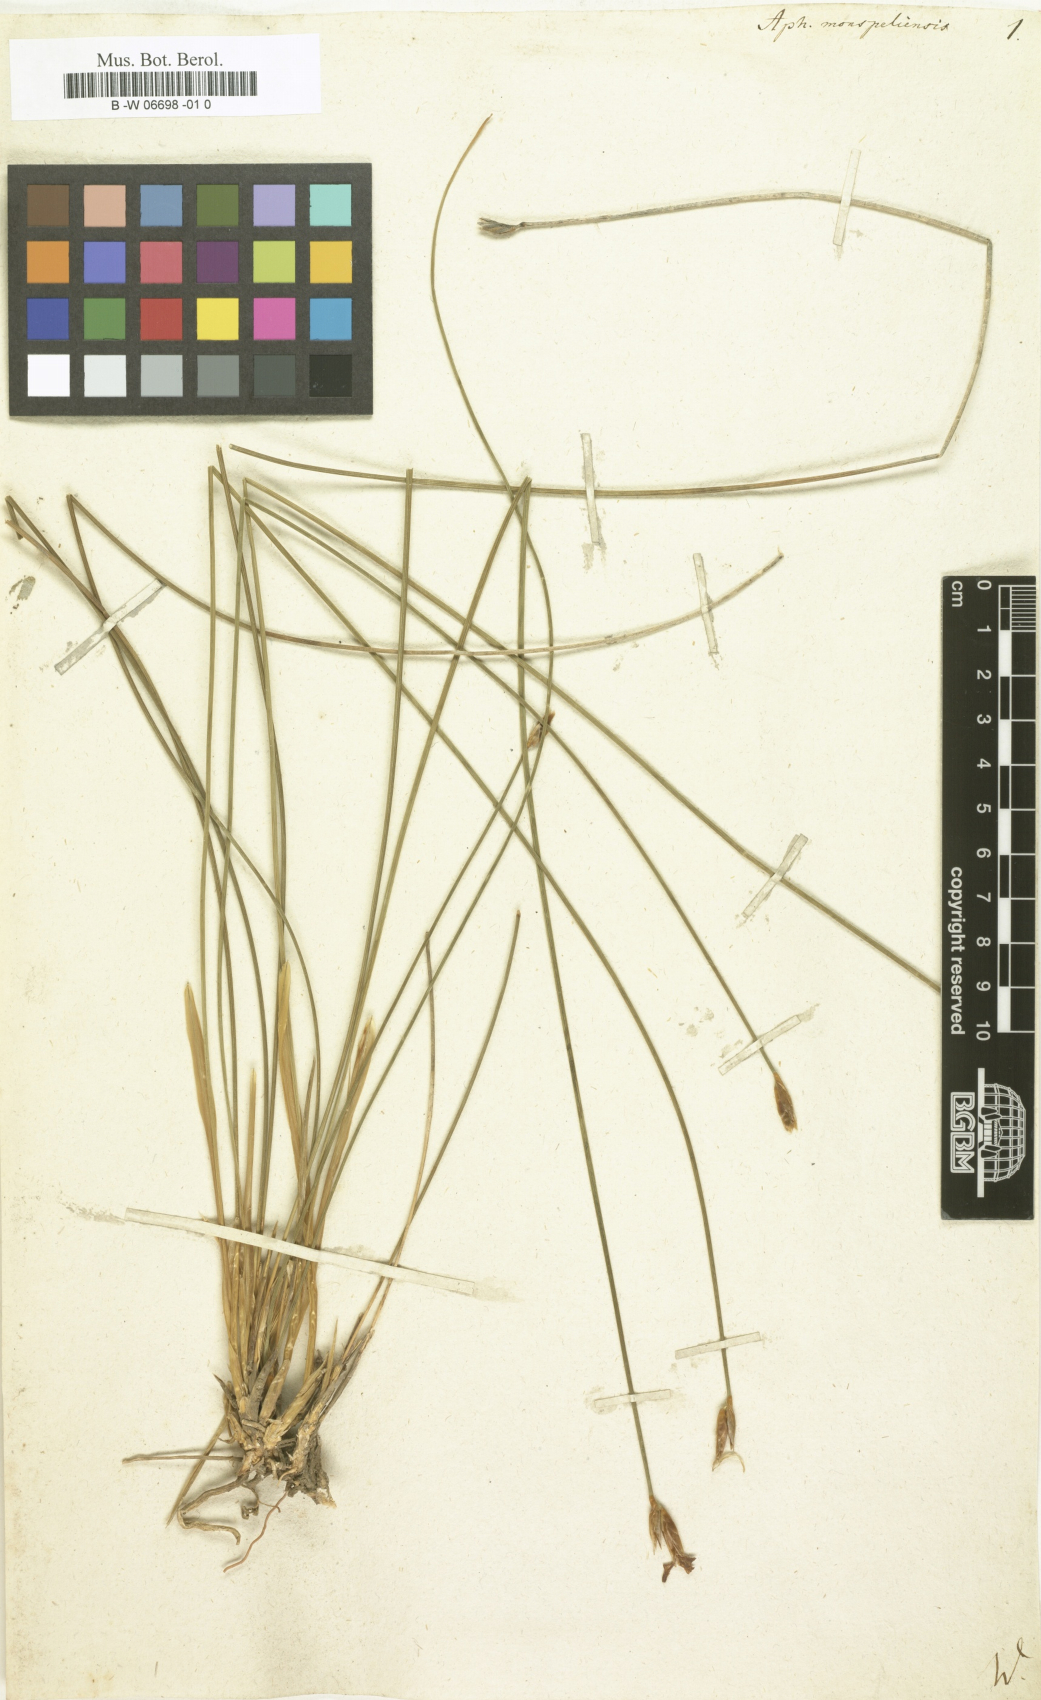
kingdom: Plantae
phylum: Tracheophyta
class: Liliopsida
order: Asparagales
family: Asparagaceae
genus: Aphyllanthes
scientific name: Aphyllanthes monspeliensis
